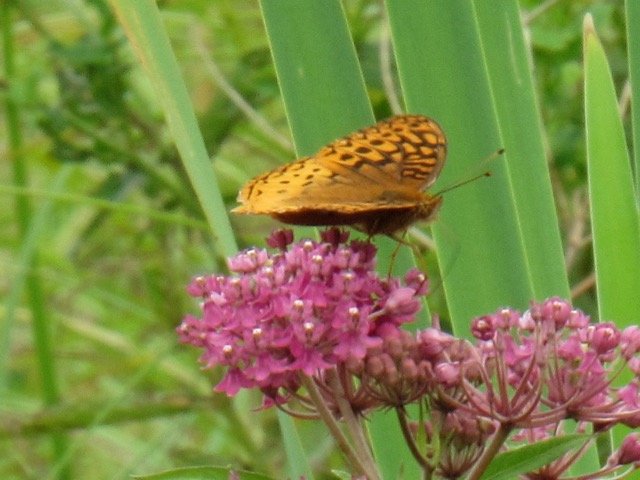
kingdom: Animalia
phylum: Arthropoda
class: Insecta
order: Lepidoptera
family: Nymphalidae
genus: Speyeria
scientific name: Speyeria cybele
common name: Great Spangled Fritillary
